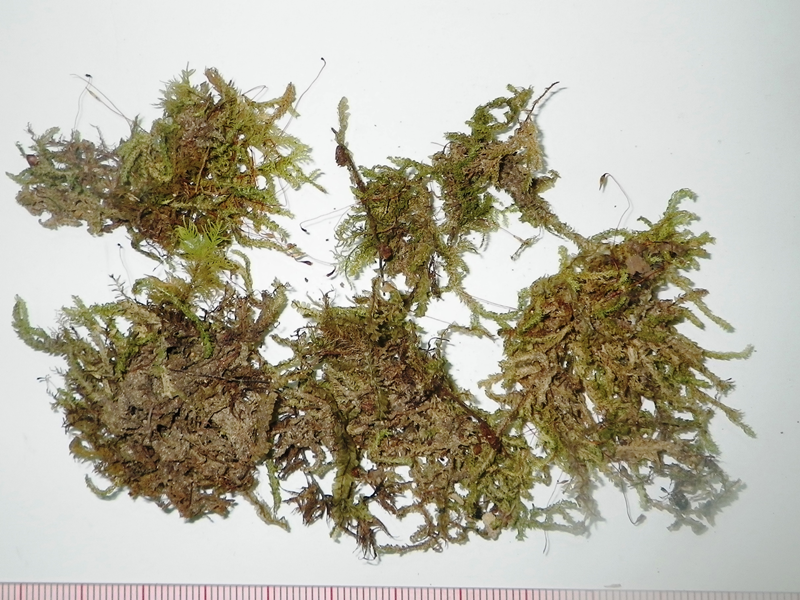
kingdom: Plantae
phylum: Bryophyta
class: Bryopsida
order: Hookeriales
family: Pilotrichaceae
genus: Callicostella
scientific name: Callicostella papillata
